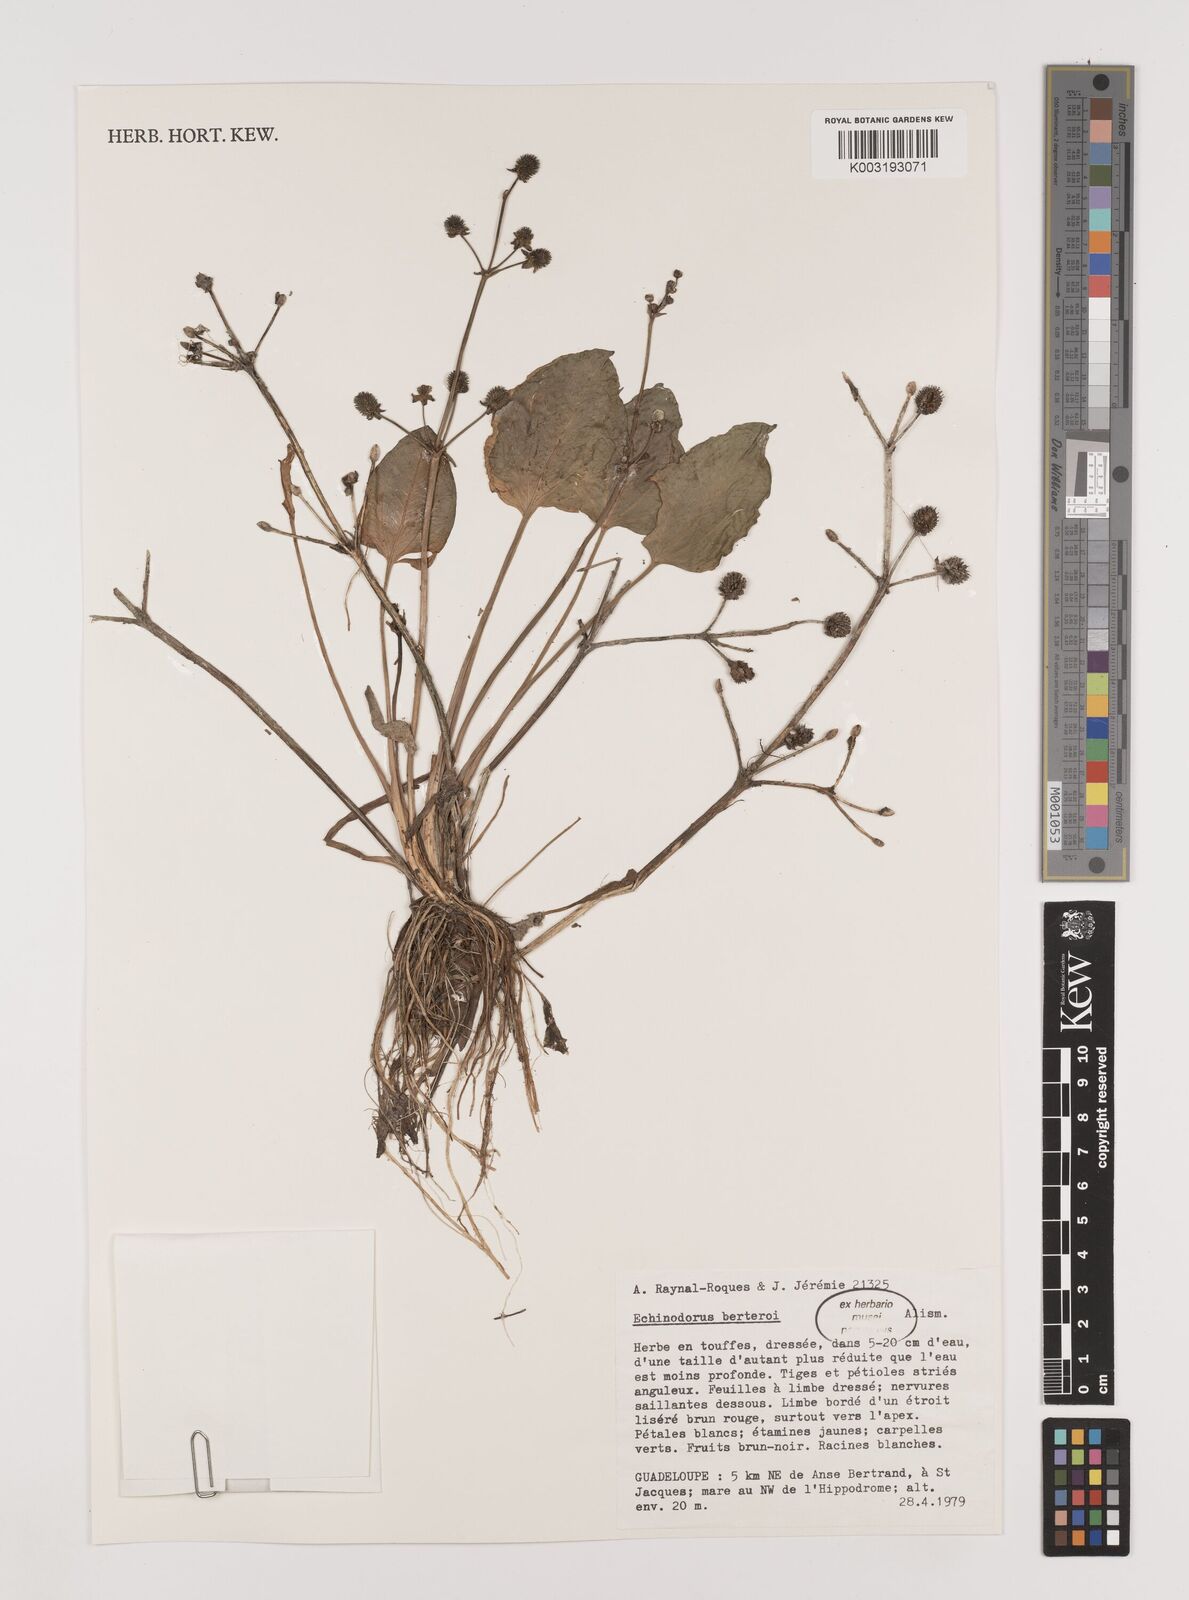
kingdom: Plantae
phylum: Tracheophyta
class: Liliopsida
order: Alismatales
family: Alismataceae
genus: Echinodorus
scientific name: Echinodorus berteroi
